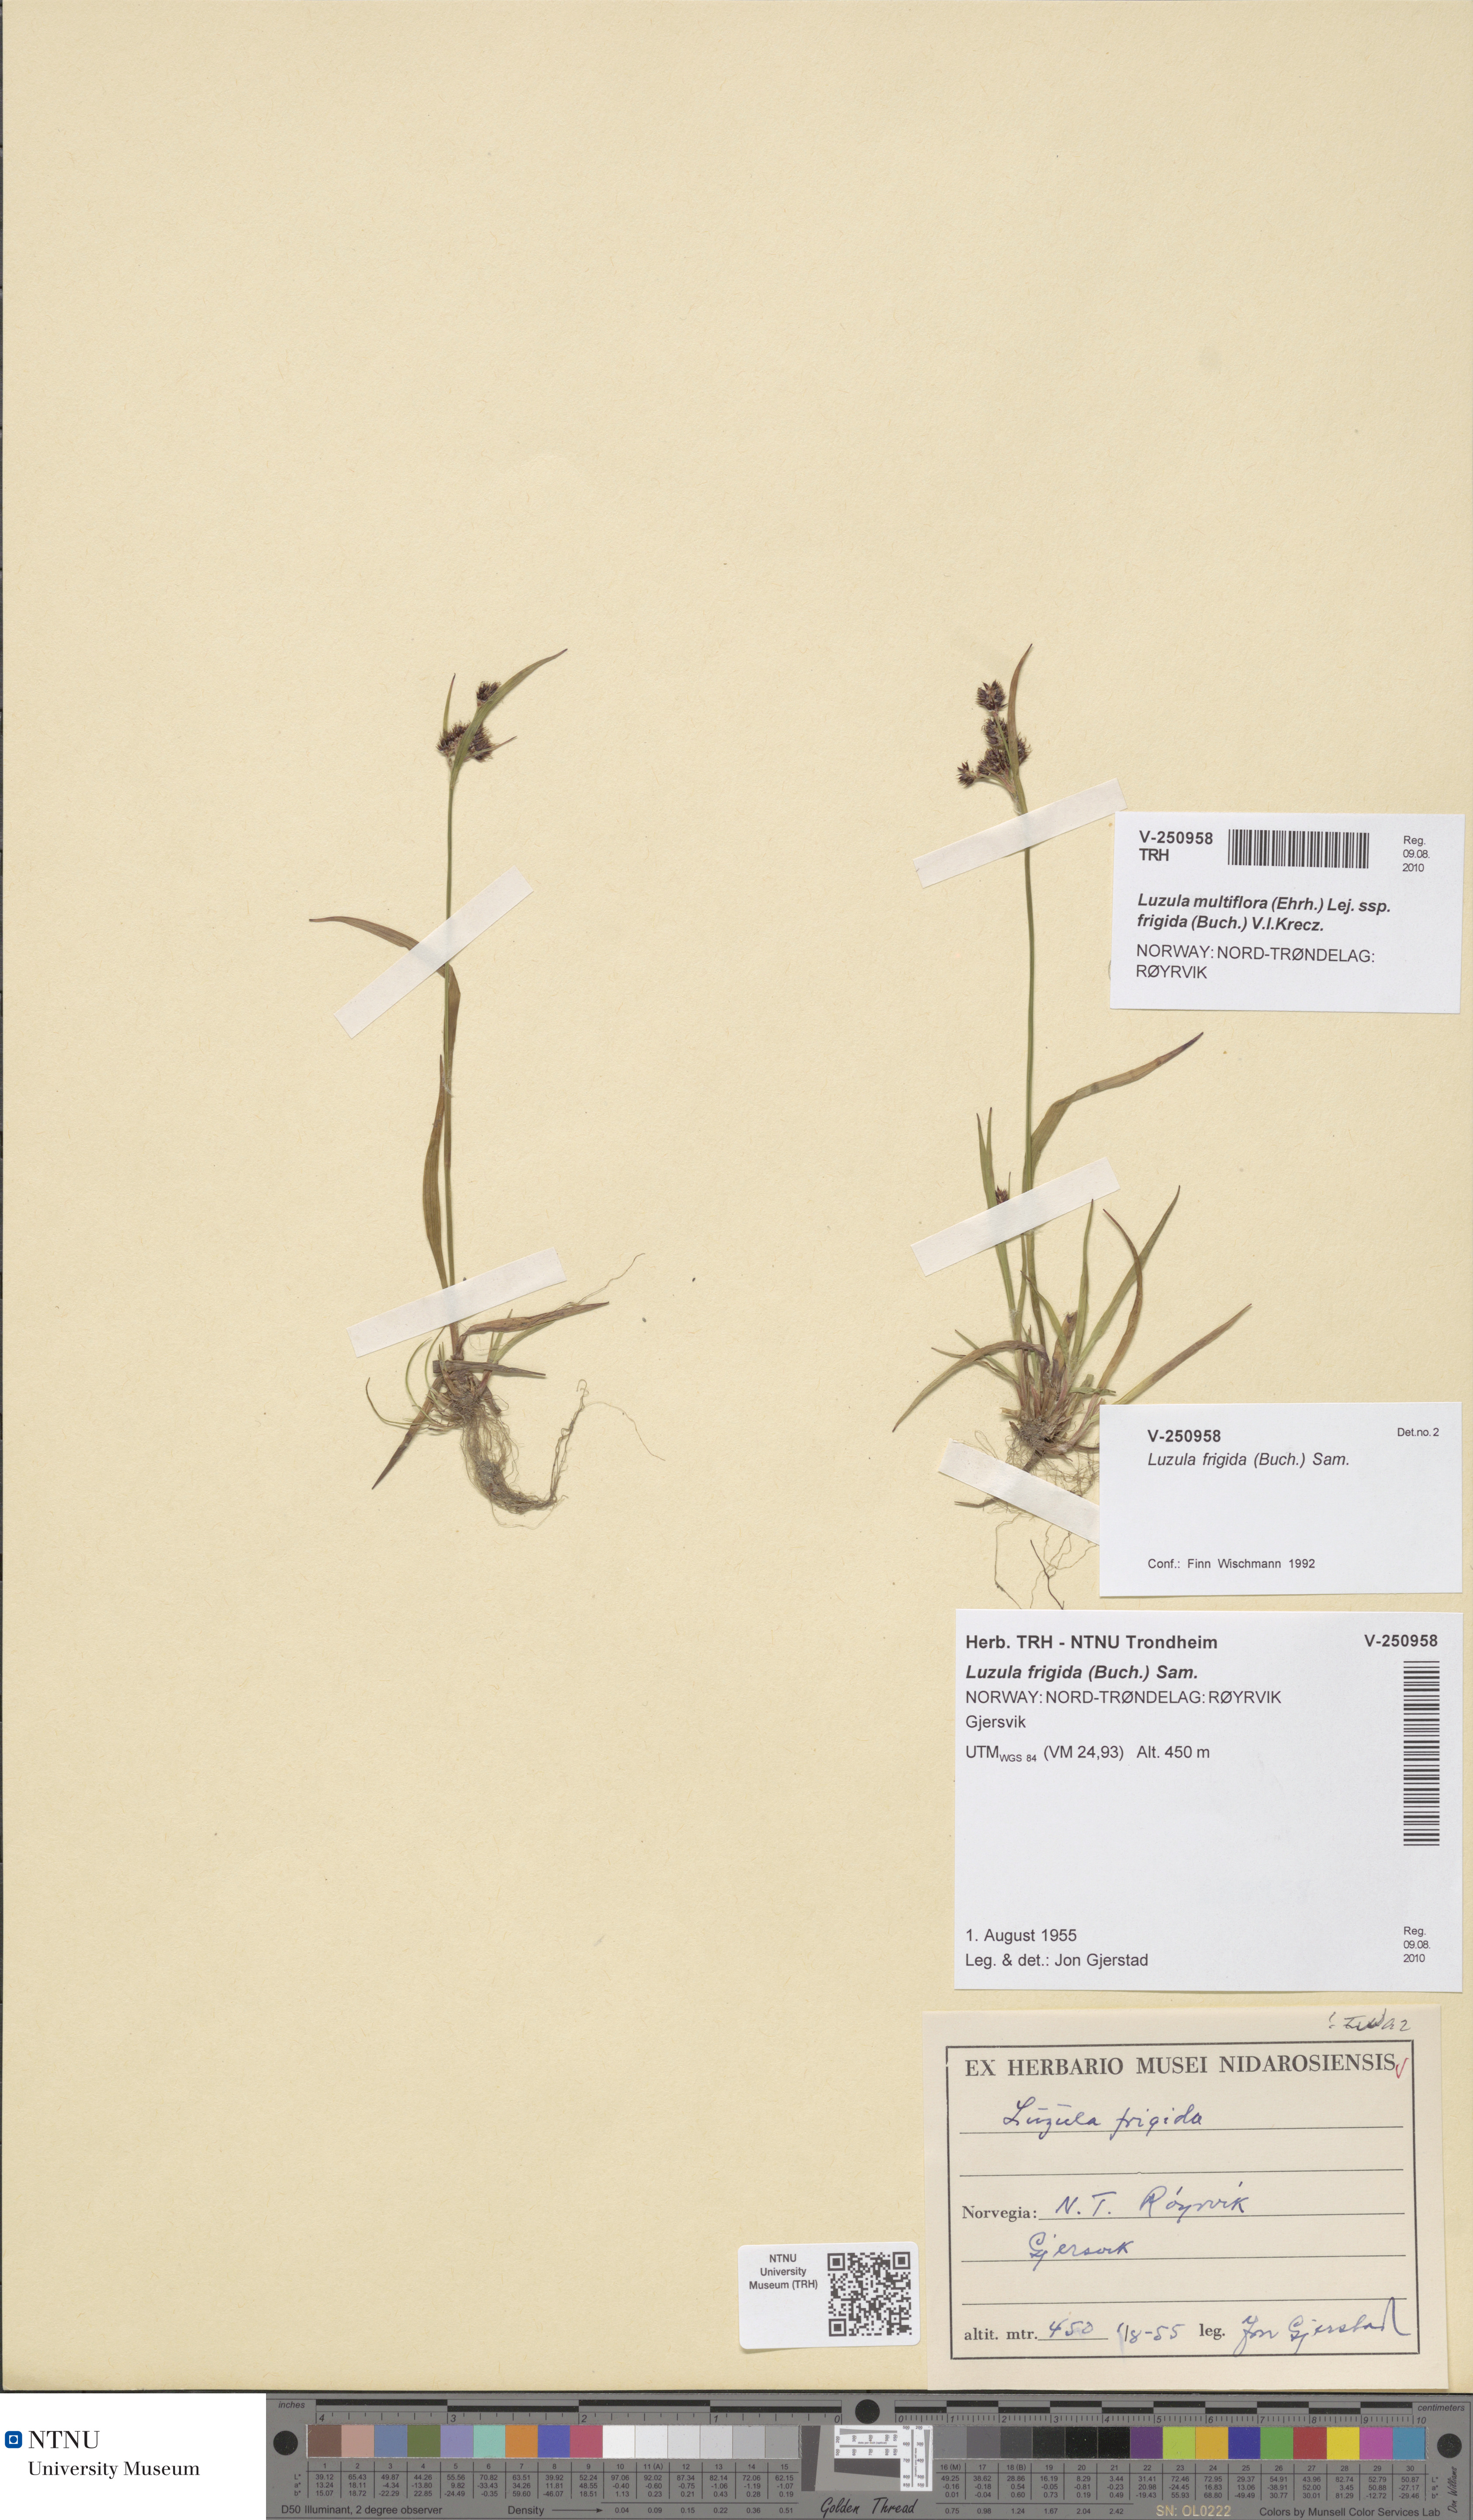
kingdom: Plantae
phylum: Tracheophyta
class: Liliopsida
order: Poales
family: Juncaceae
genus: Luzula
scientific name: Luzula multiflora
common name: Heath wood-rush
